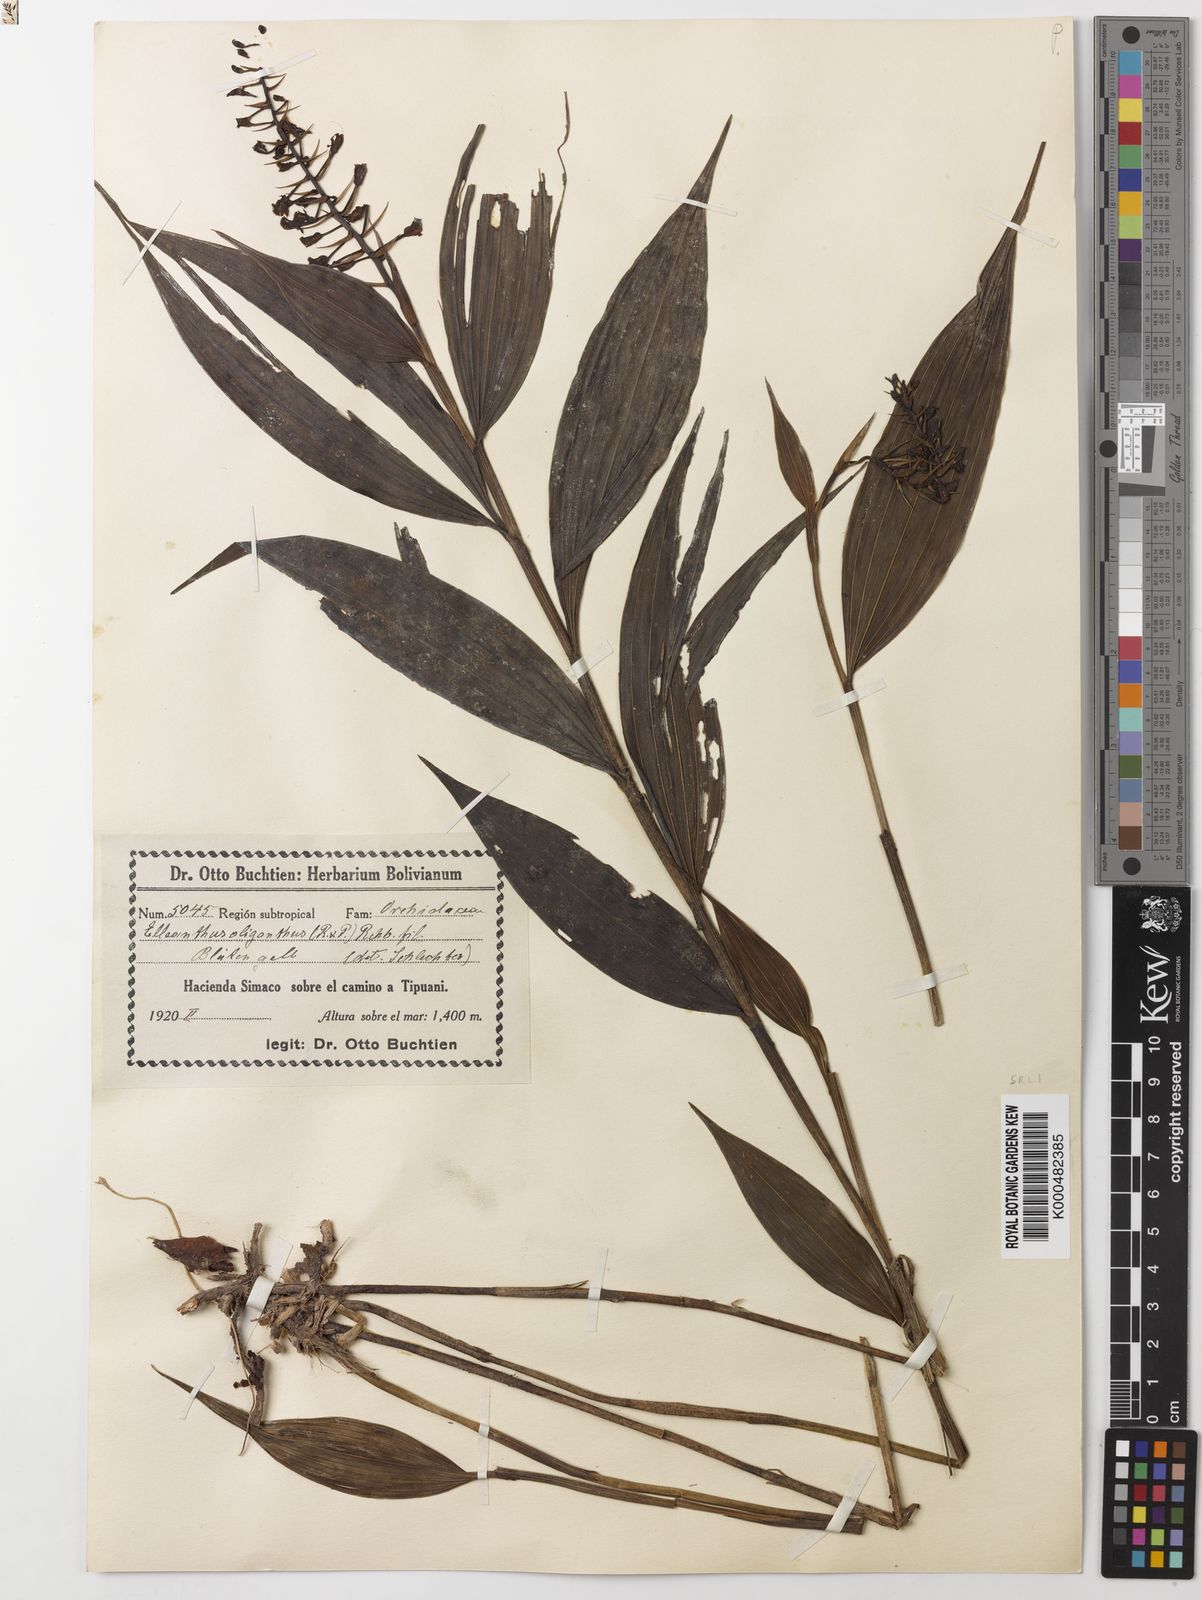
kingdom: Plantae
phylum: Tracheophyta
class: Liliopsida
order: Asparagales
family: Orchidaceae
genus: Elleanthus
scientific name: Elleanthus oliganthus
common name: Sparse blooming elleanthus
